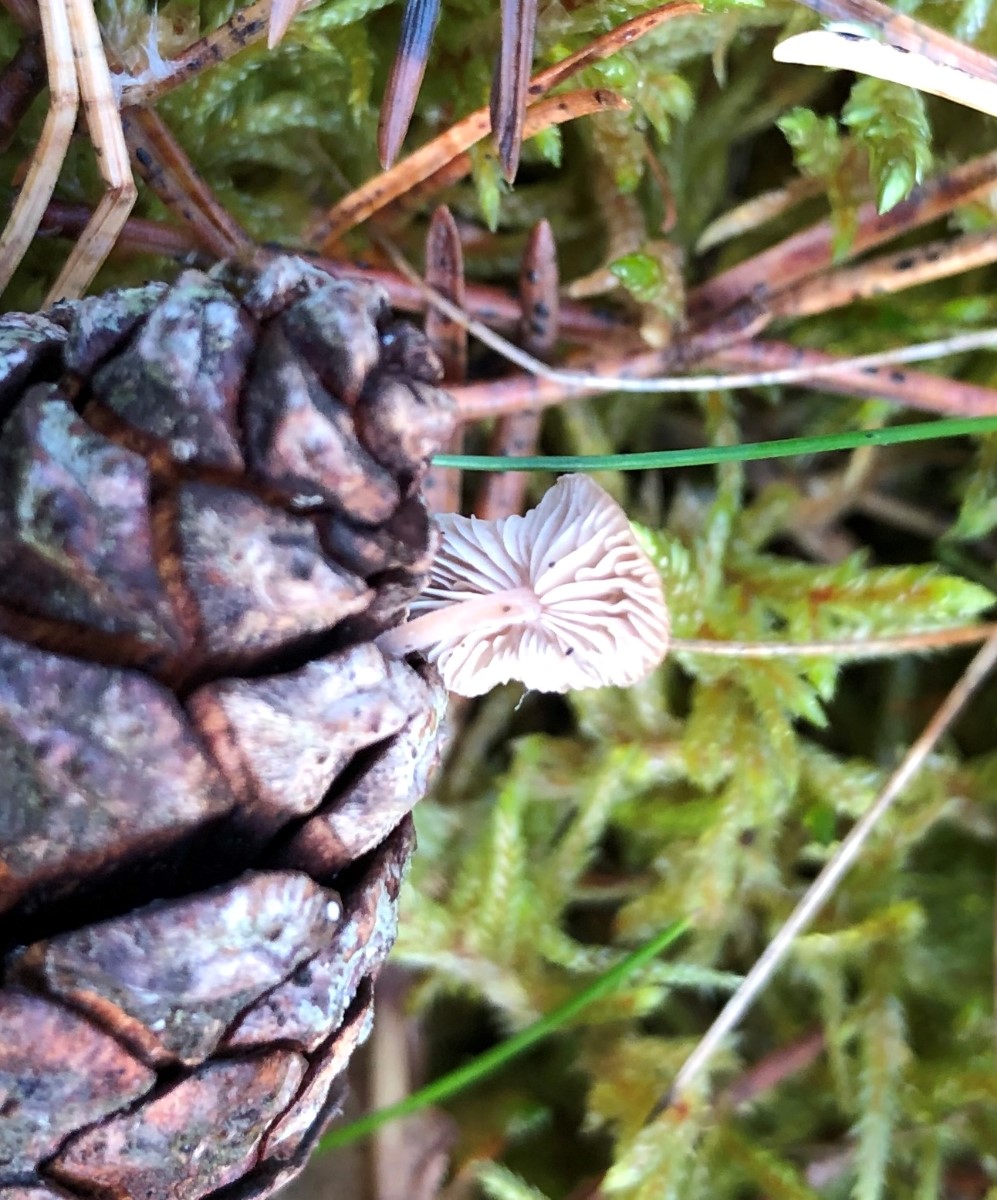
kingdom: Fungi
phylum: Basidiomycota
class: Agaricomycetes
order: Agaricales
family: Marasmiaceae
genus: Baeospora
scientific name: Baeospora myosura
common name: koglebruskhat
